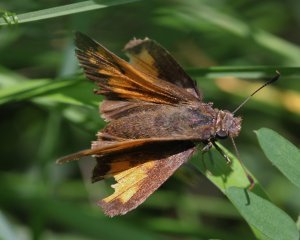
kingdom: Animalia
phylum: Arthropoda
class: Insecta
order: Lepidoptera
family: Hesperiidae
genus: Lon
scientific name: Lon hobomok
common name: Hobomok Skipper
